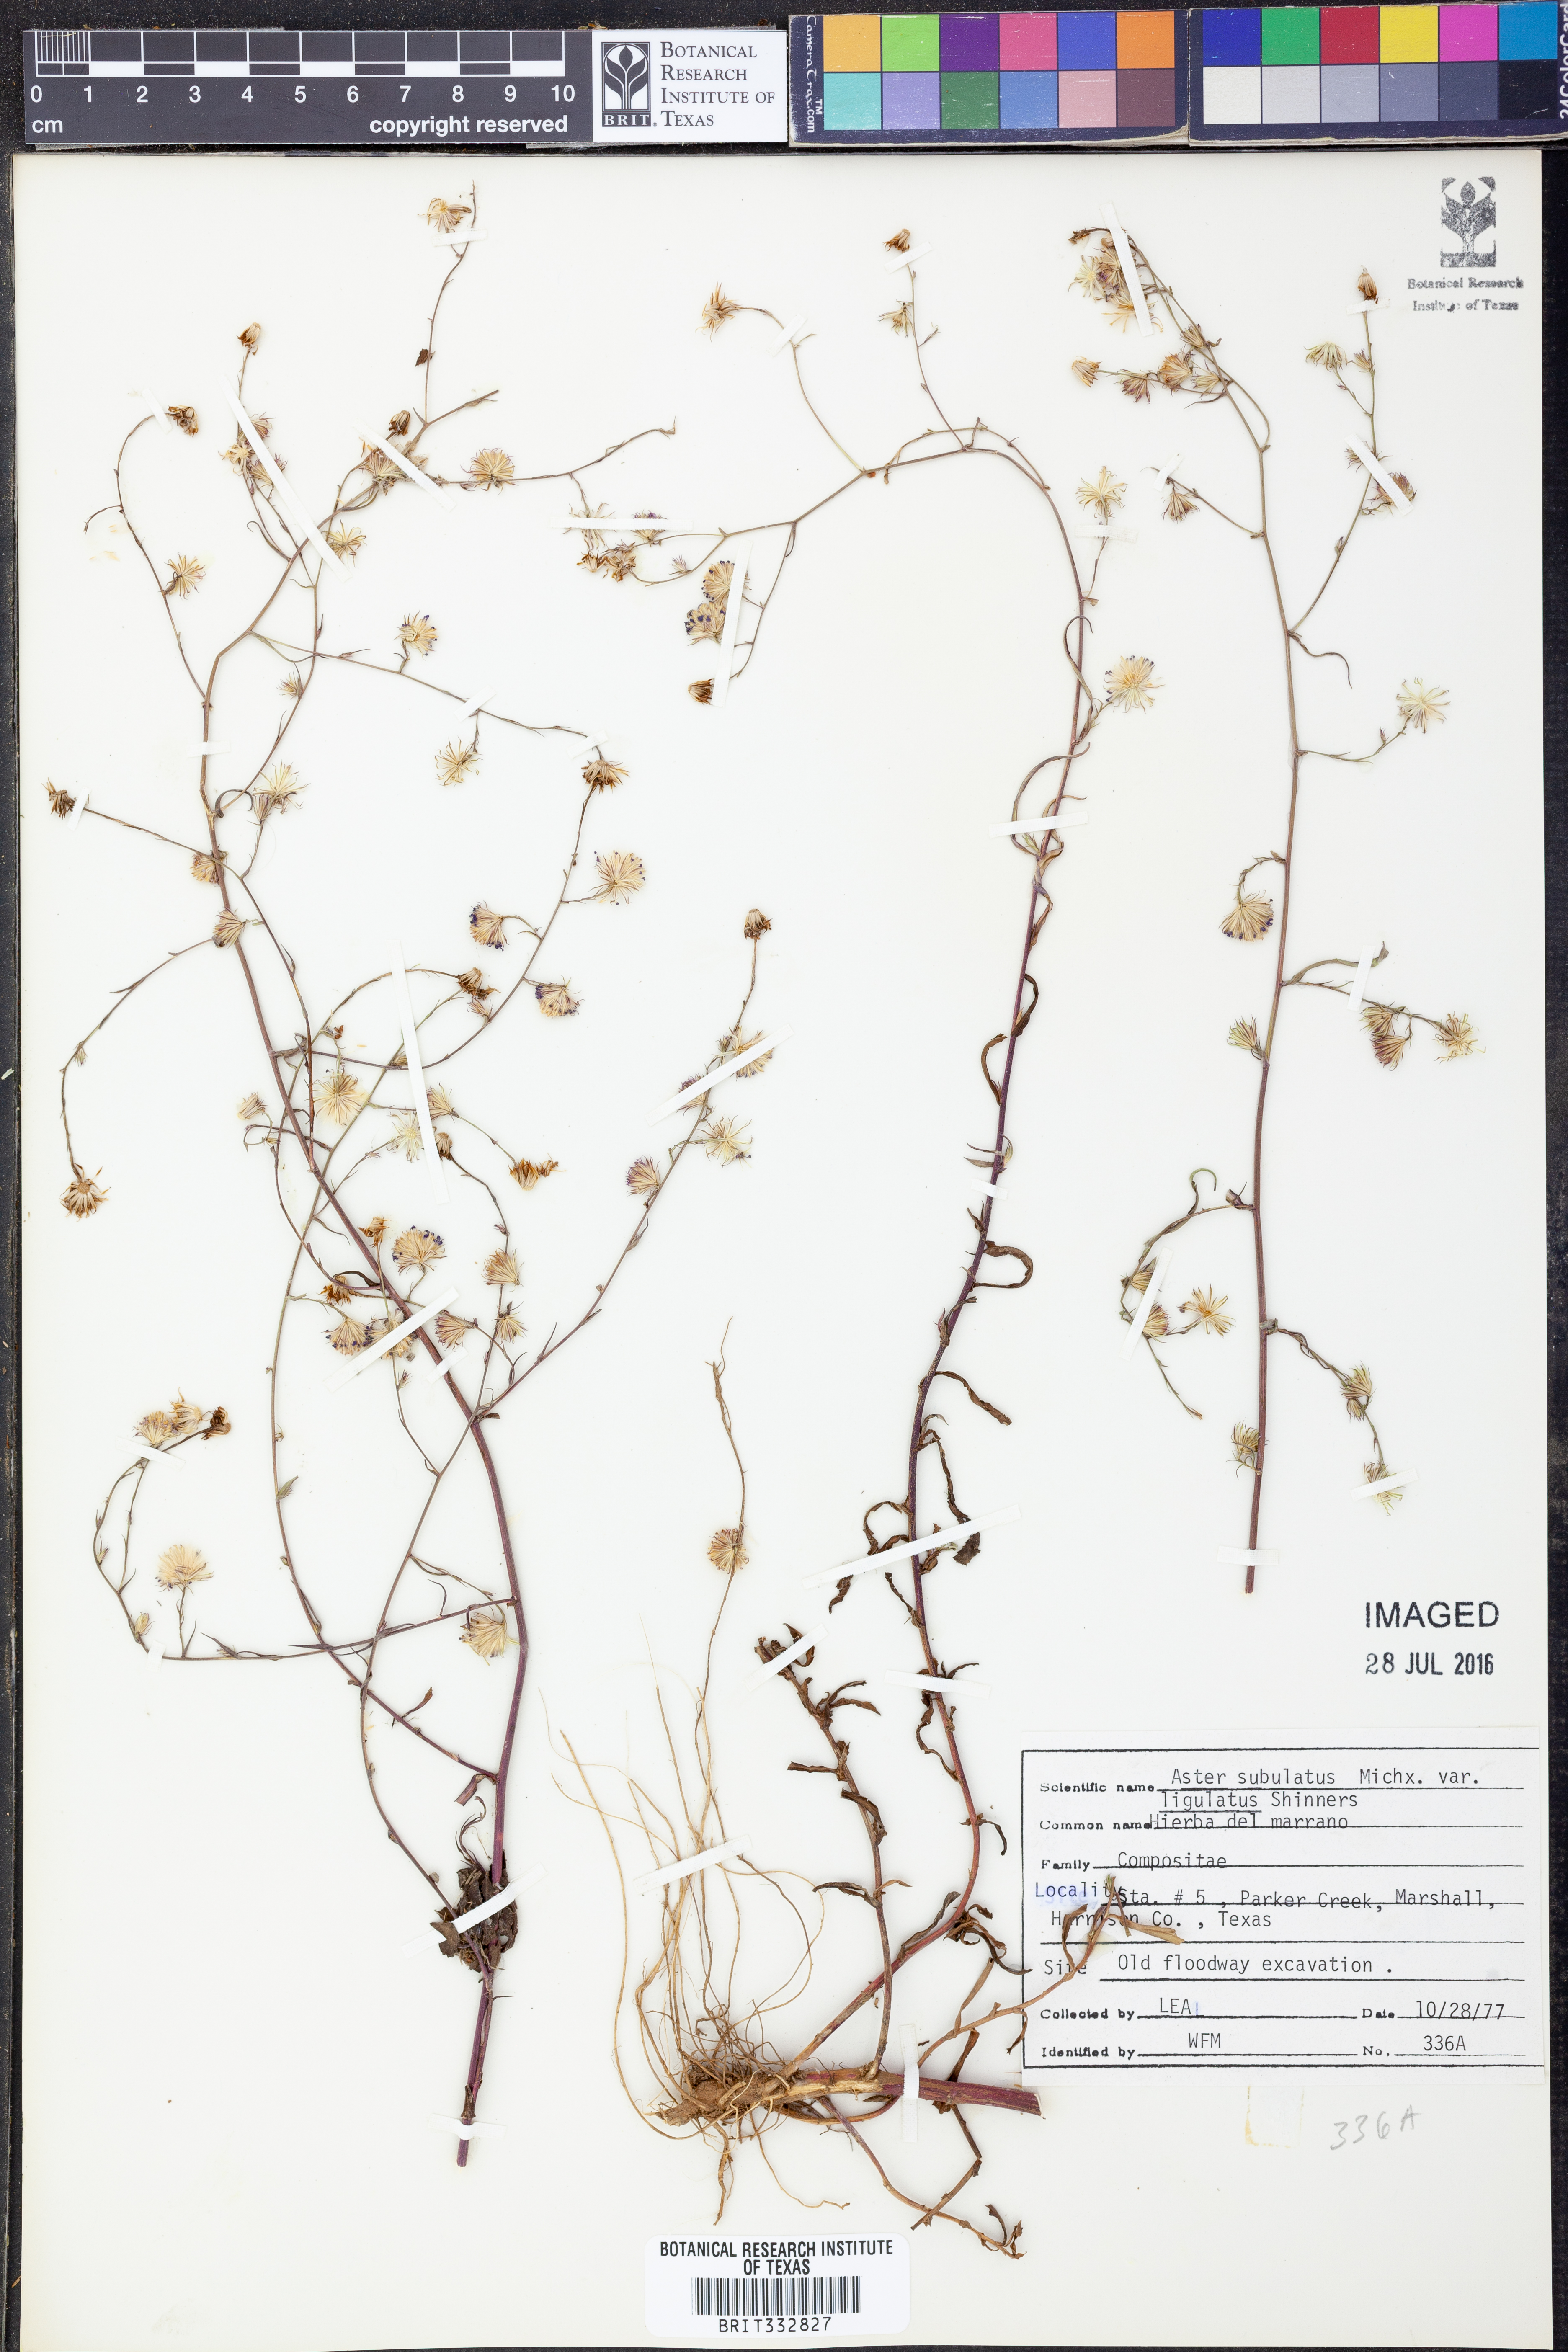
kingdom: Plantae
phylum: Tracheophyta
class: Magnoliopsida
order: Asterales
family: Asteraceae
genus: Symphyotrichum
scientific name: Symphyotrichum divaricatum
